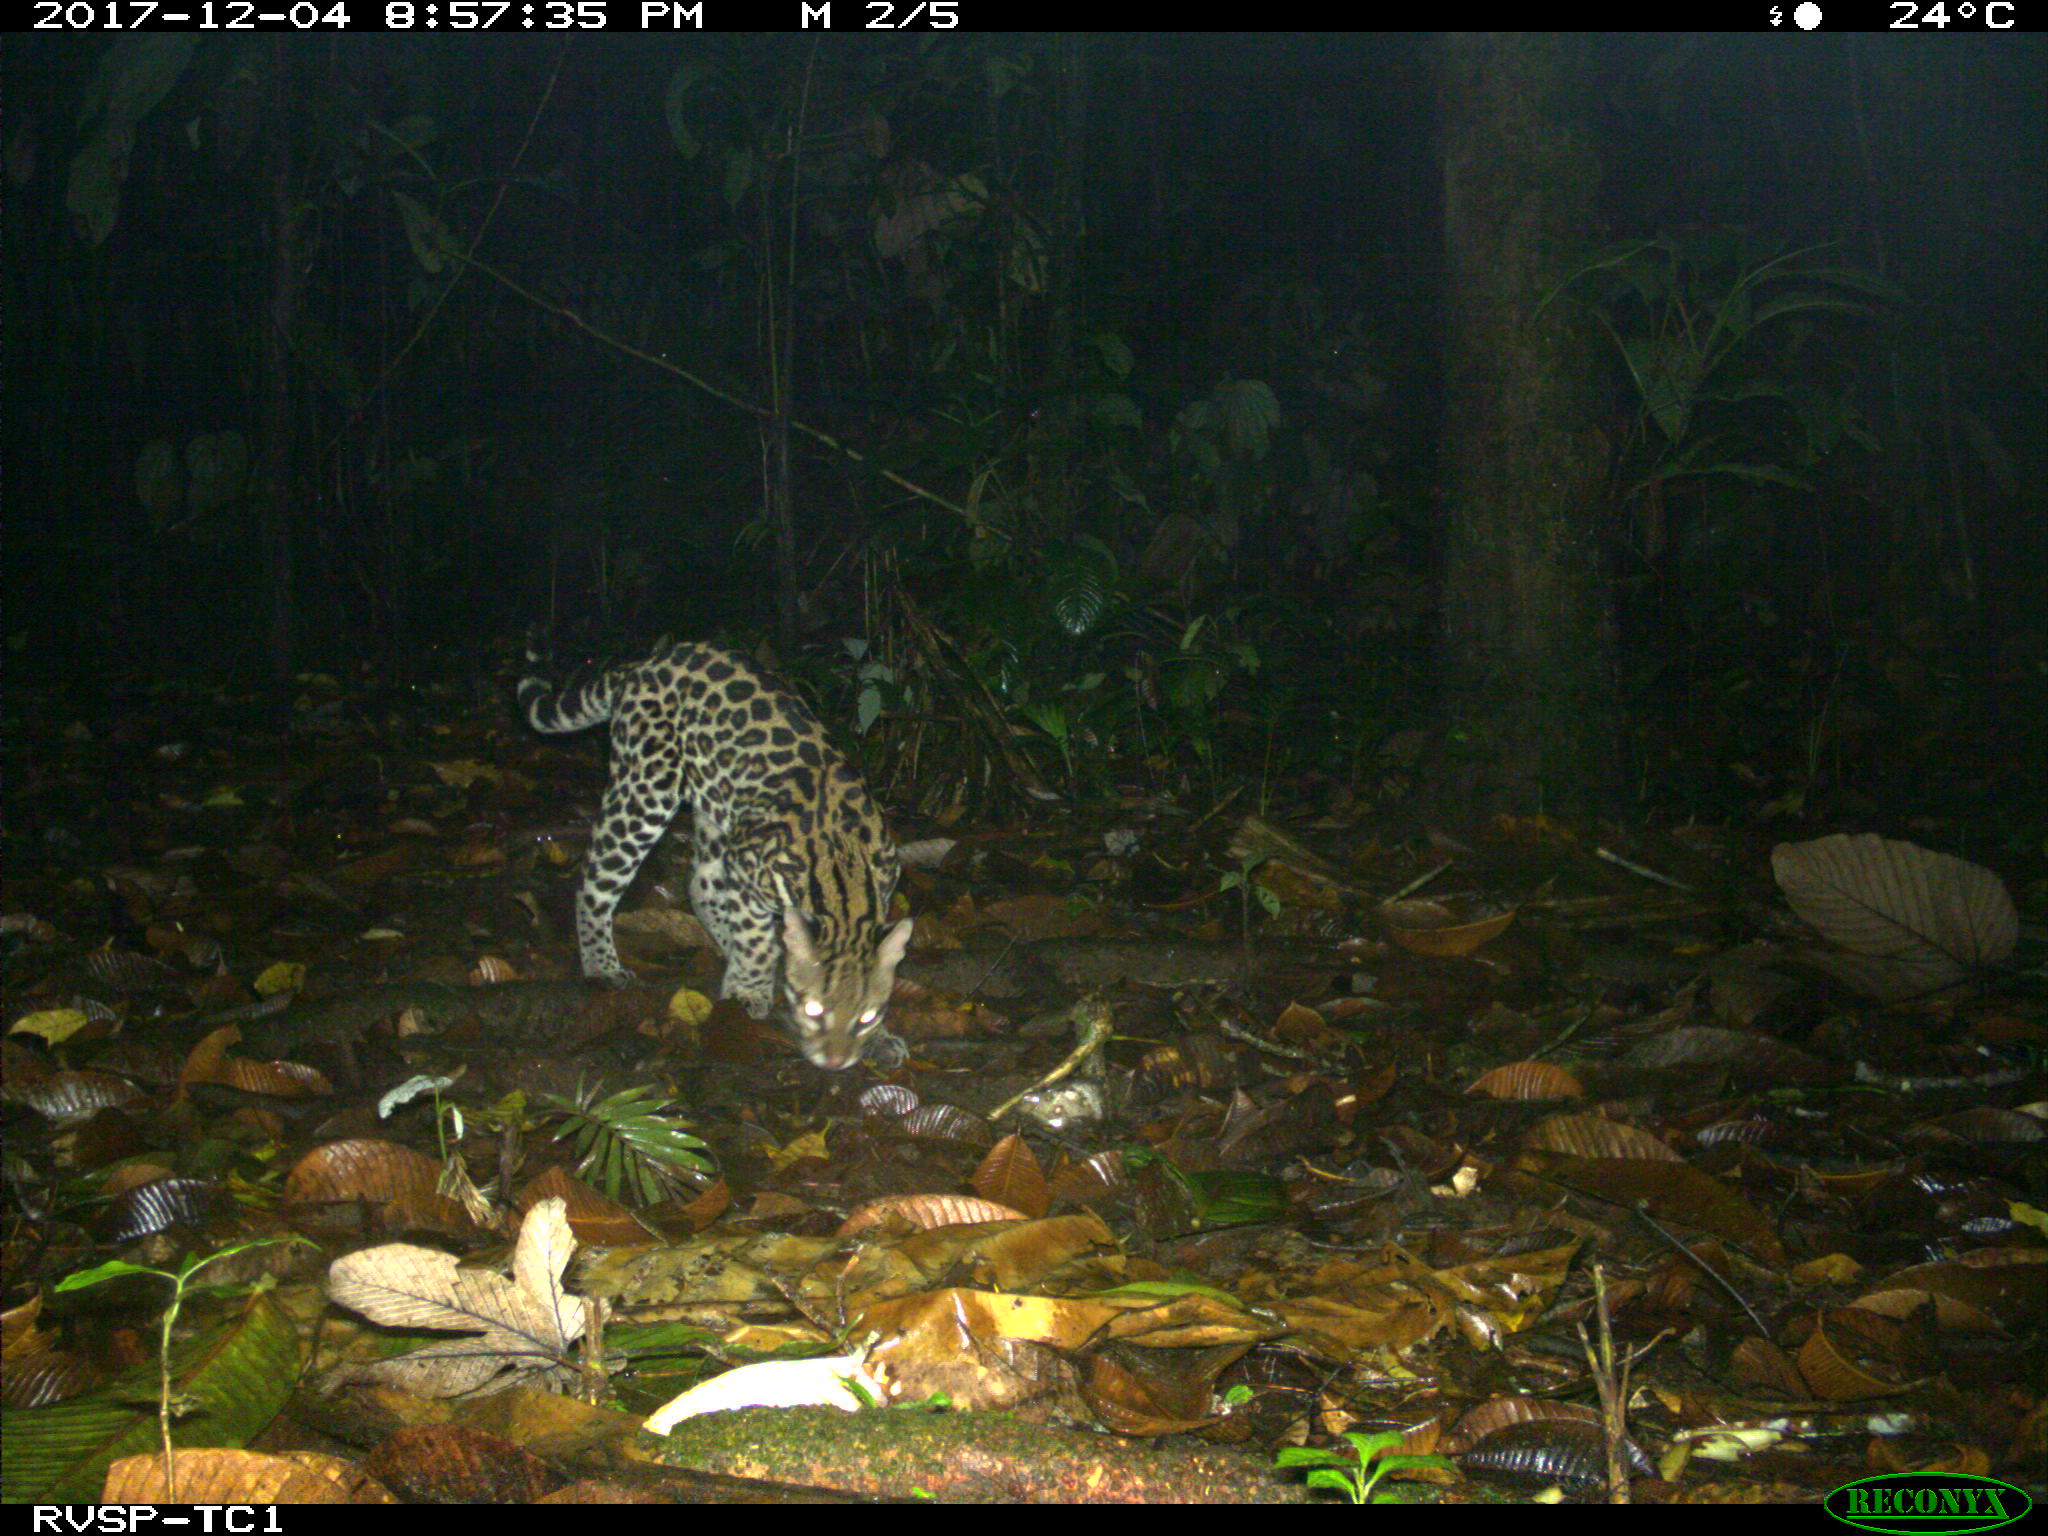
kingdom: Animalia
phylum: Chordata
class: Mammalia
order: Carnivora
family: Felidae
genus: Leopardus
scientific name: Leopardus pardalis
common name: Ocelot
